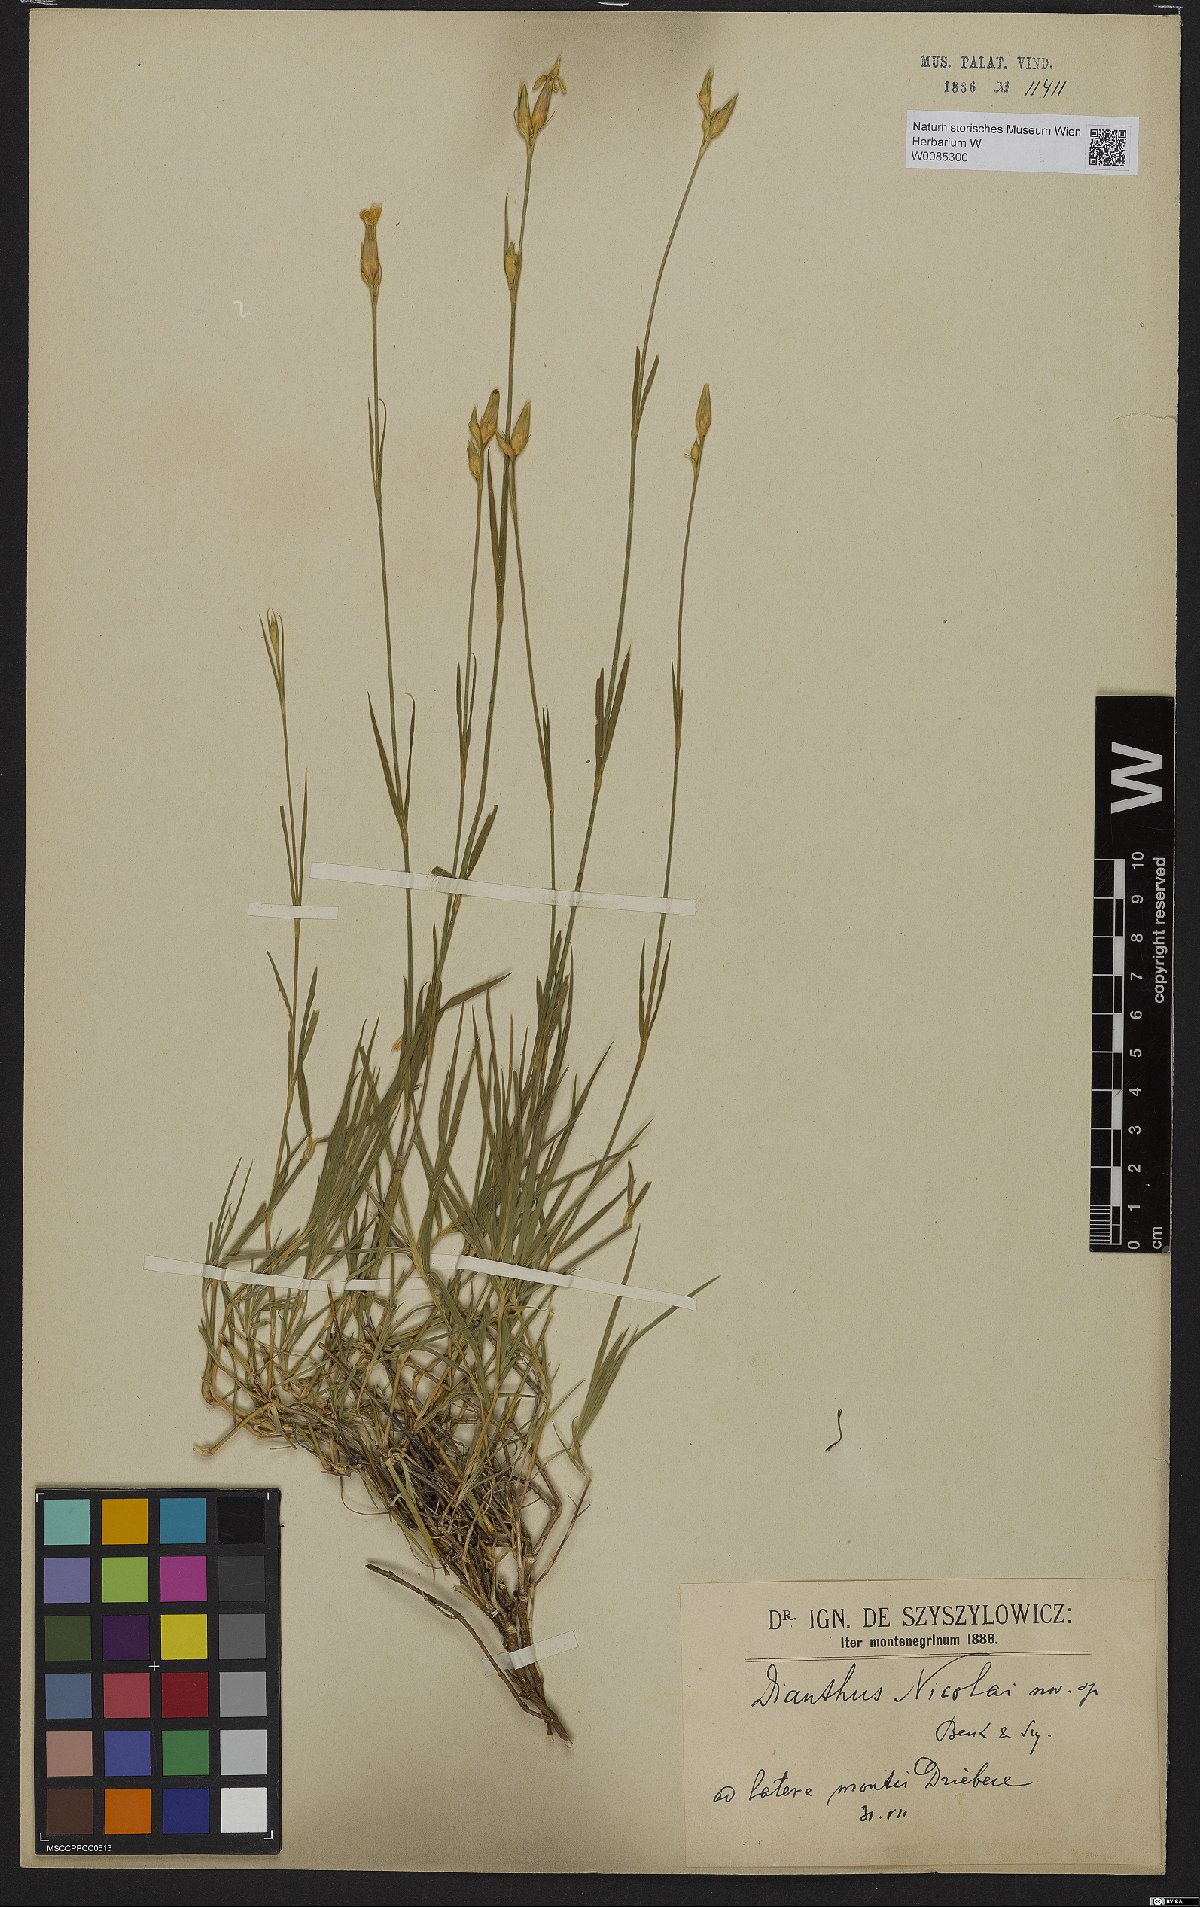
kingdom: Plantae
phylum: Tracheophyta
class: Magnoliopsida
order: Caryophyllales
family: Caryophyllaceae
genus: Dianthus
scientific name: Dianthus petraeus
